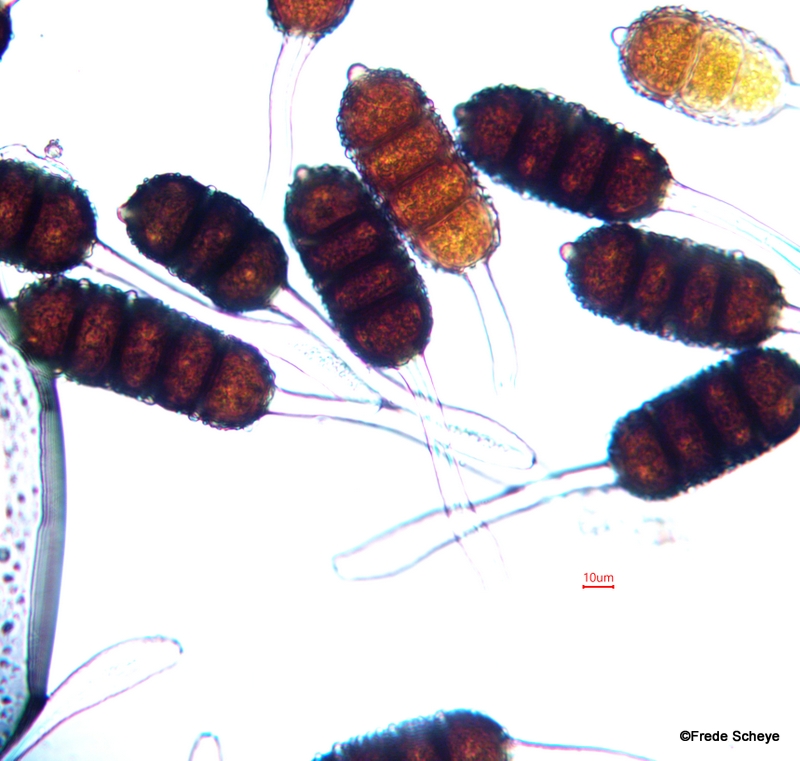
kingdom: Fungi
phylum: Basidiomycota
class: Pucciniomycetes
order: Pucciniales
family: Phragmidiaceae
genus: Phragmidium
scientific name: Phragmidium violaceum
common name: violet flercellerust
